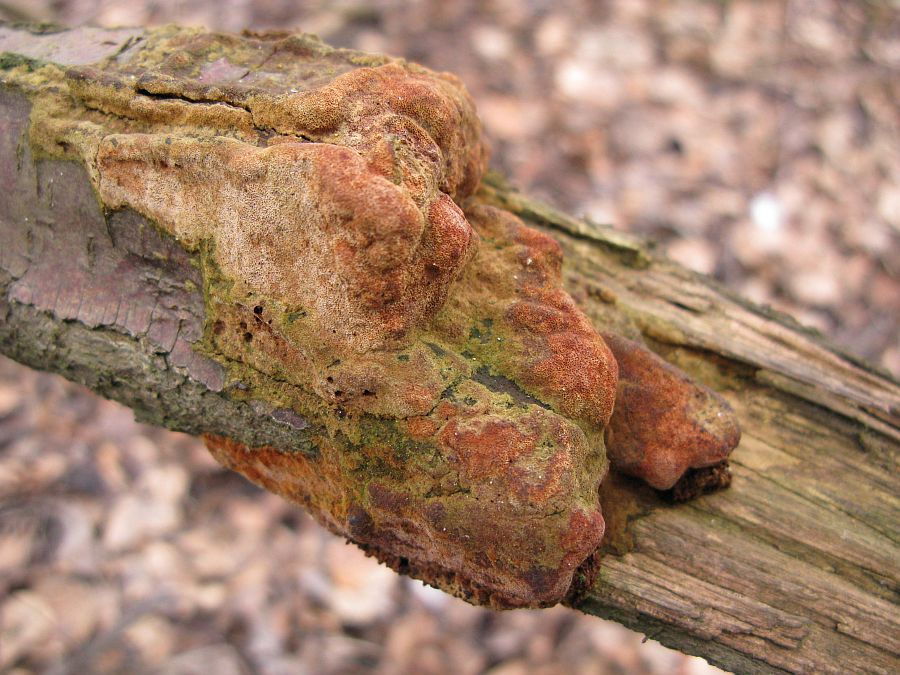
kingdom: Fungi
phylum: Basidiomycota
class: Agaricomycetes
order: Hymenochaetales
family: Hymenochaetaceae
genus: Fuscoporia
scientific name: Fuscoporia ferrea
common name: skorpe-ildporesvamp
